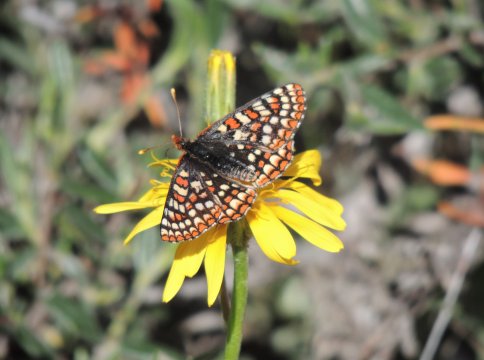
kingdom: Animalia
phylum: Arthropoda
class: Insecta
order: Lepidoptera
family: Nymphalidae
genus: Occidryas
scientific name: Occidryas editha
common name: Edith's Checkerspot
